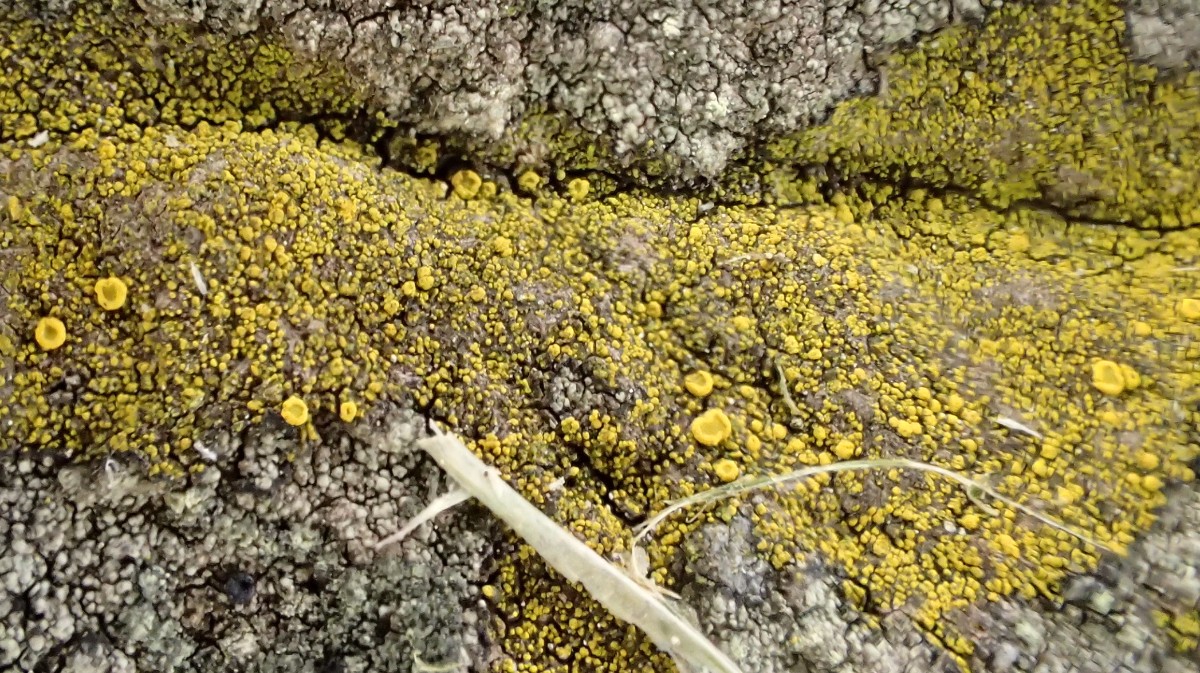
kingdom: Fungi
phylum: Ascomycota
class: Candelariomycetes
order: Candelariales
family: Candelariaceae
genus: Candelariella
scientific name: Candelariella vitellina
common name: almindelig æggeblommelav
